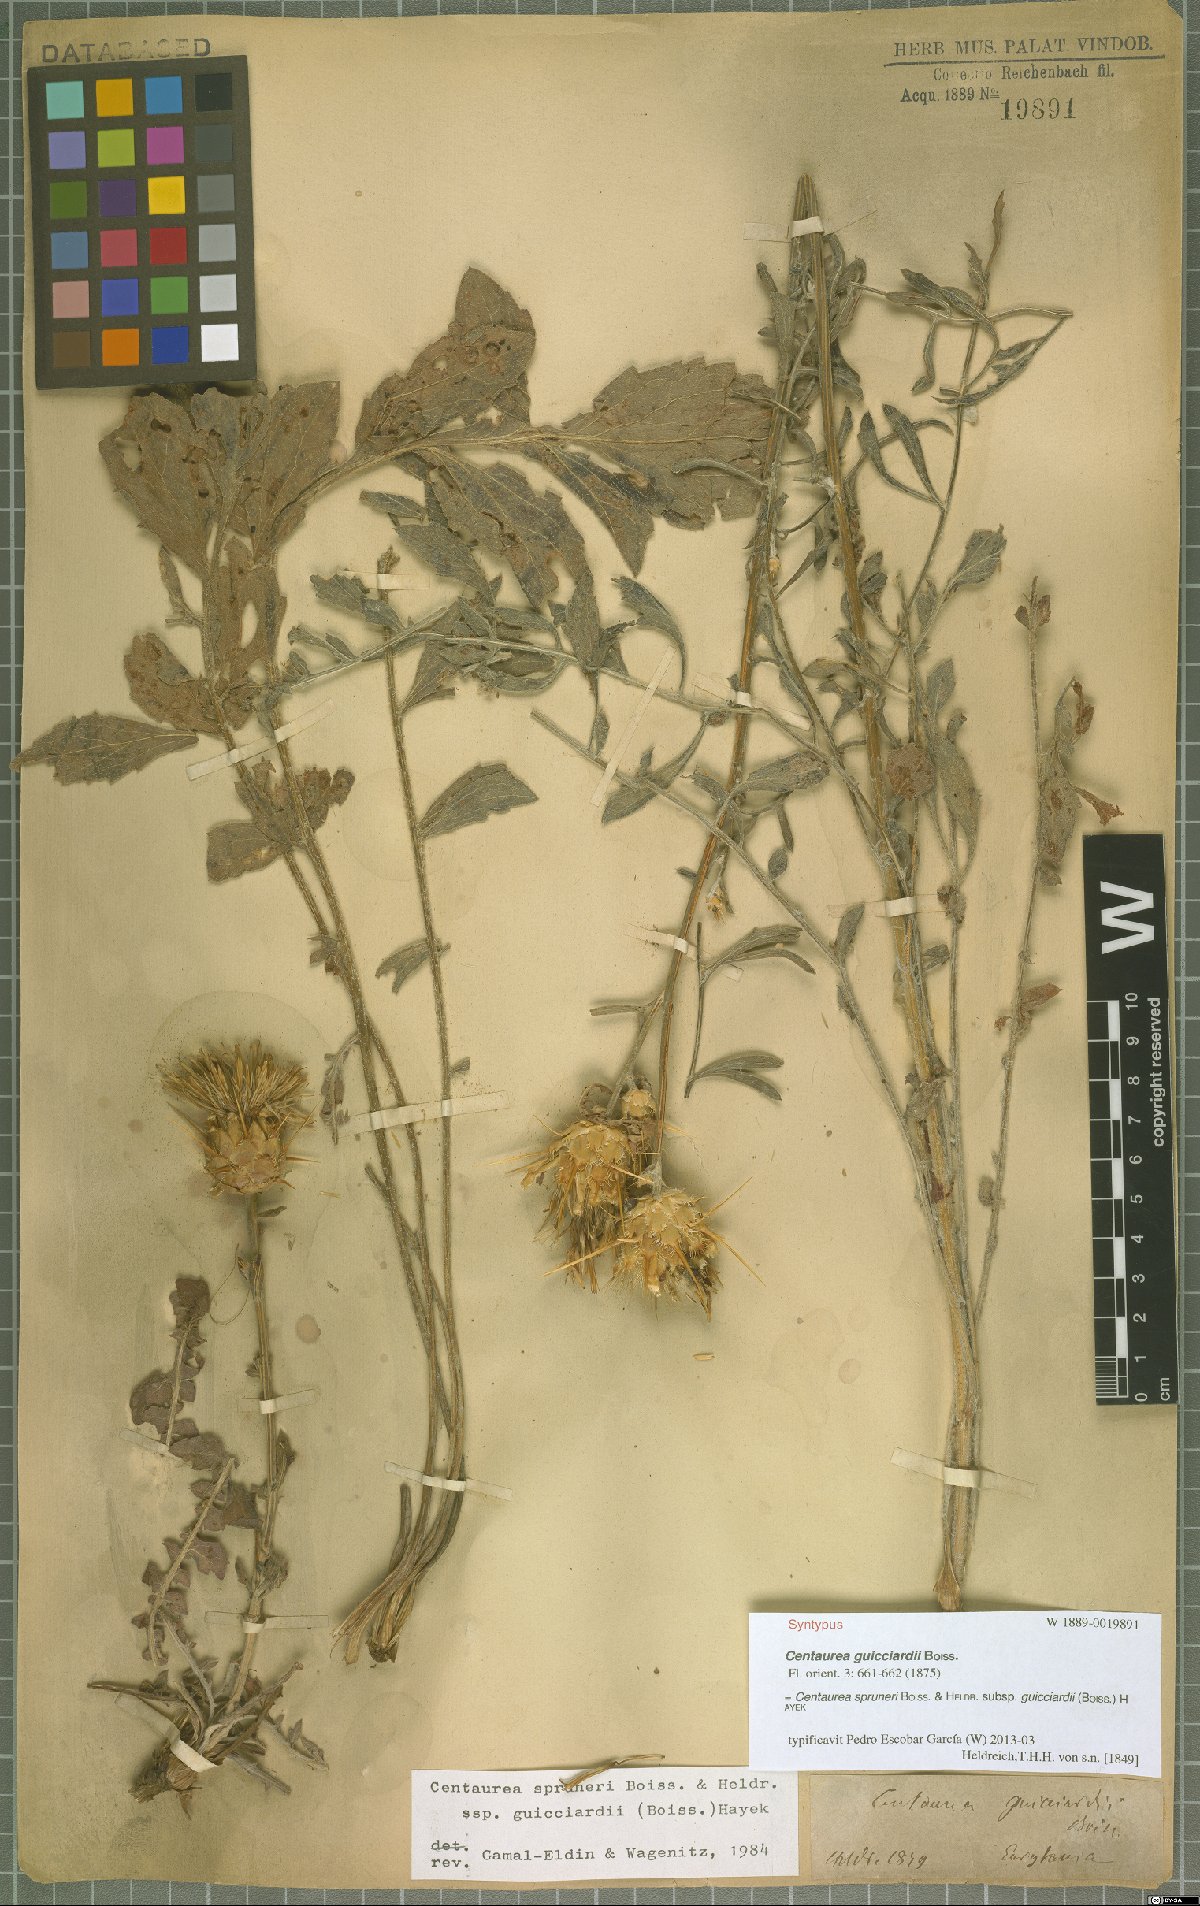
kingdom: Plantae
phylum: Tracheophyta
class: Magnoliopsida
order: Asterales
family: Asteraceae
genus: Centaurea
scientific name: Centaurea spruneri
